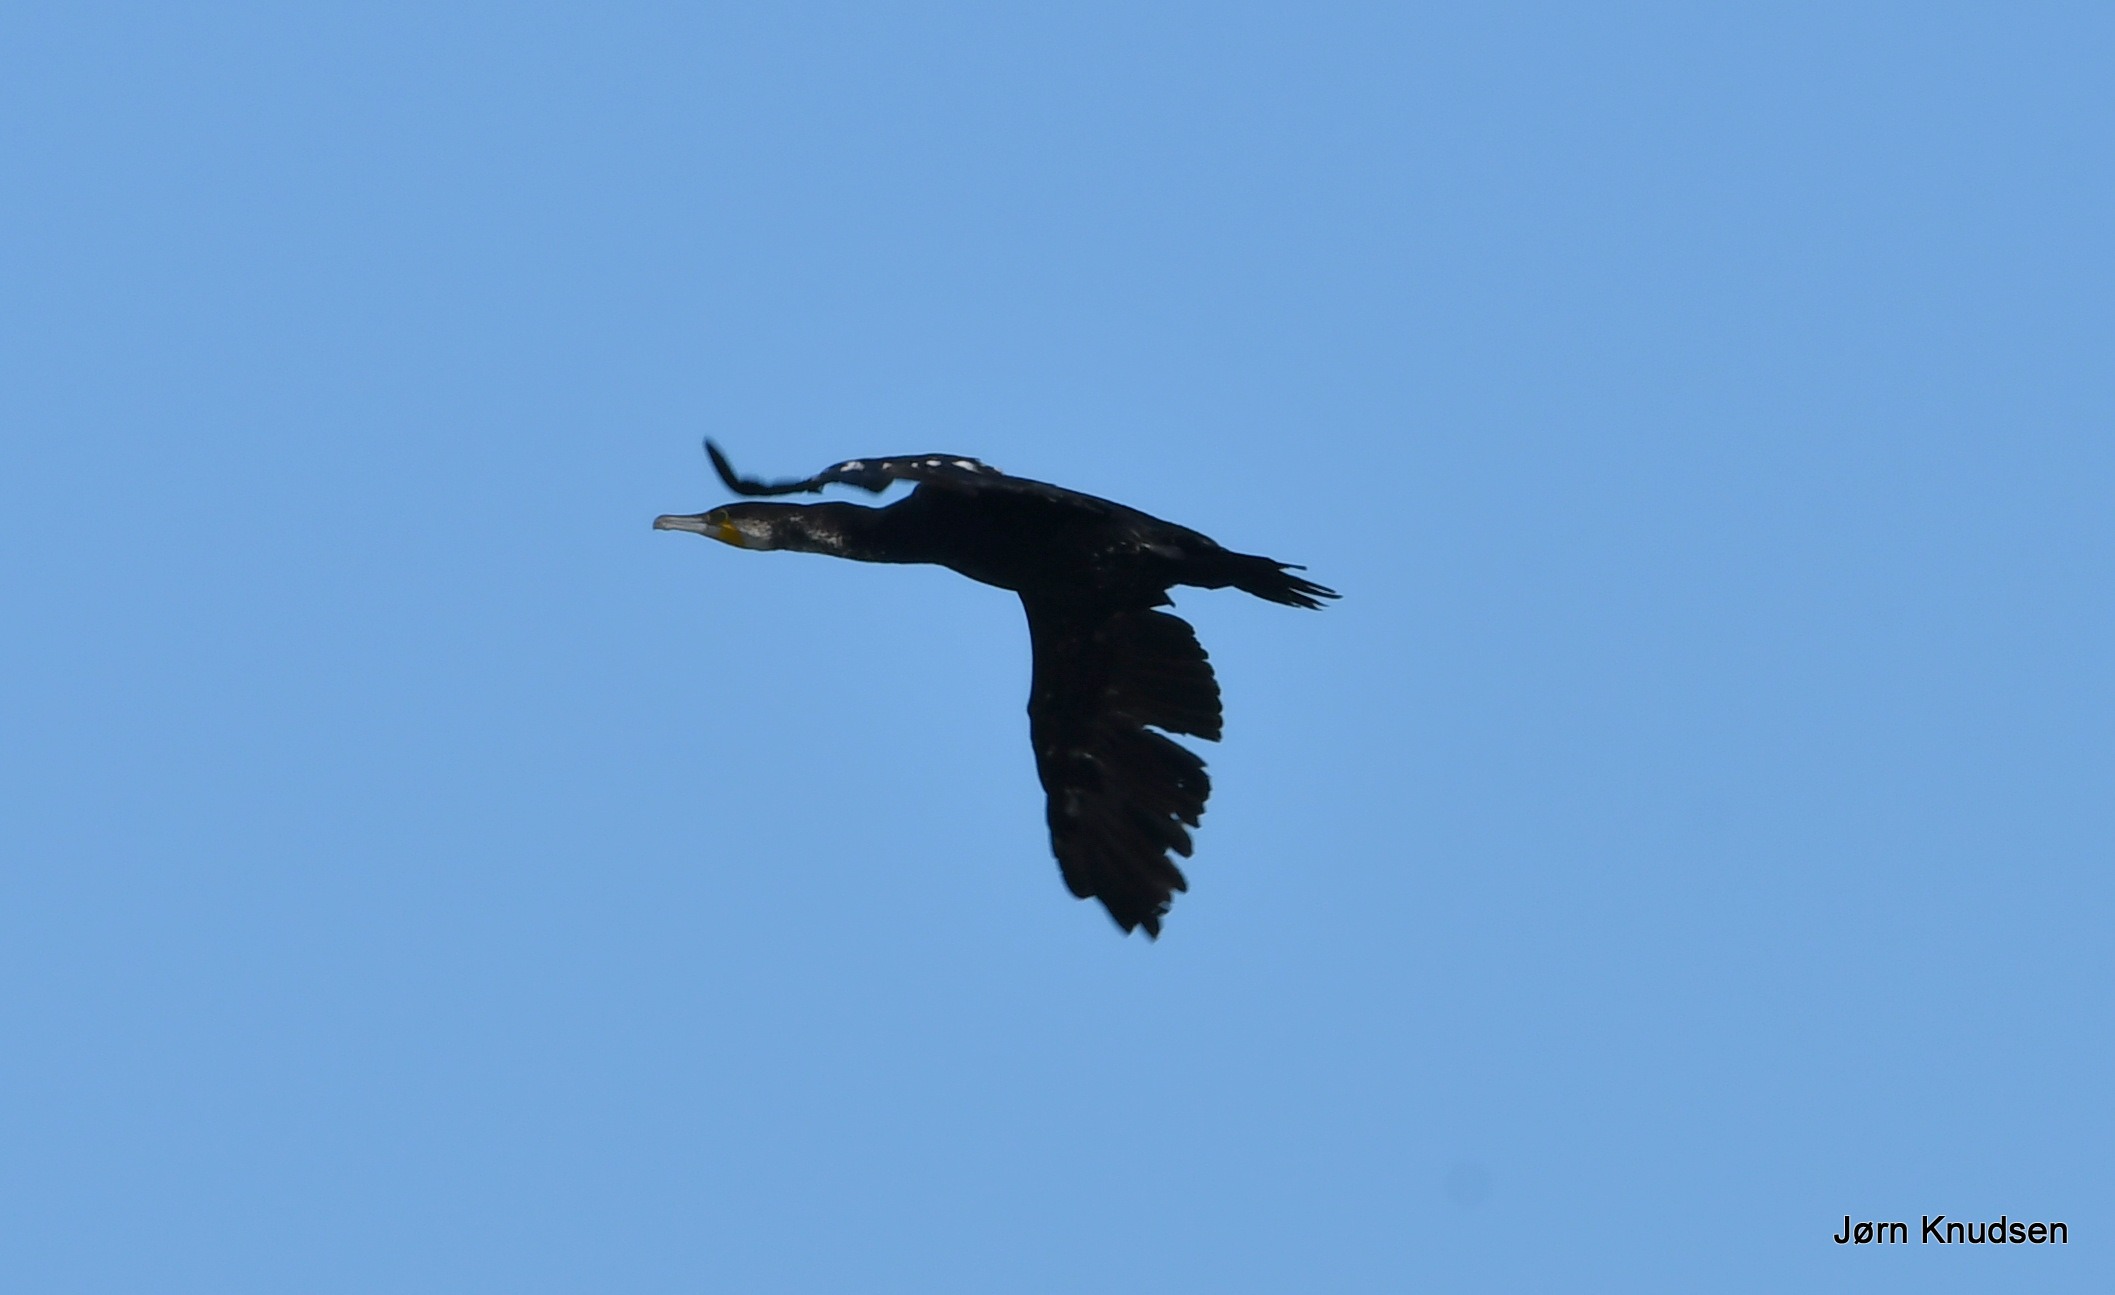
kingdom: Animalia
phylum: Chordata
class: Aves
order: Suliformes
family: Phalacrocoracidae
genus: Phalacrocorax
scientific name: Phalacrocorax carbo
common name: Skarv
